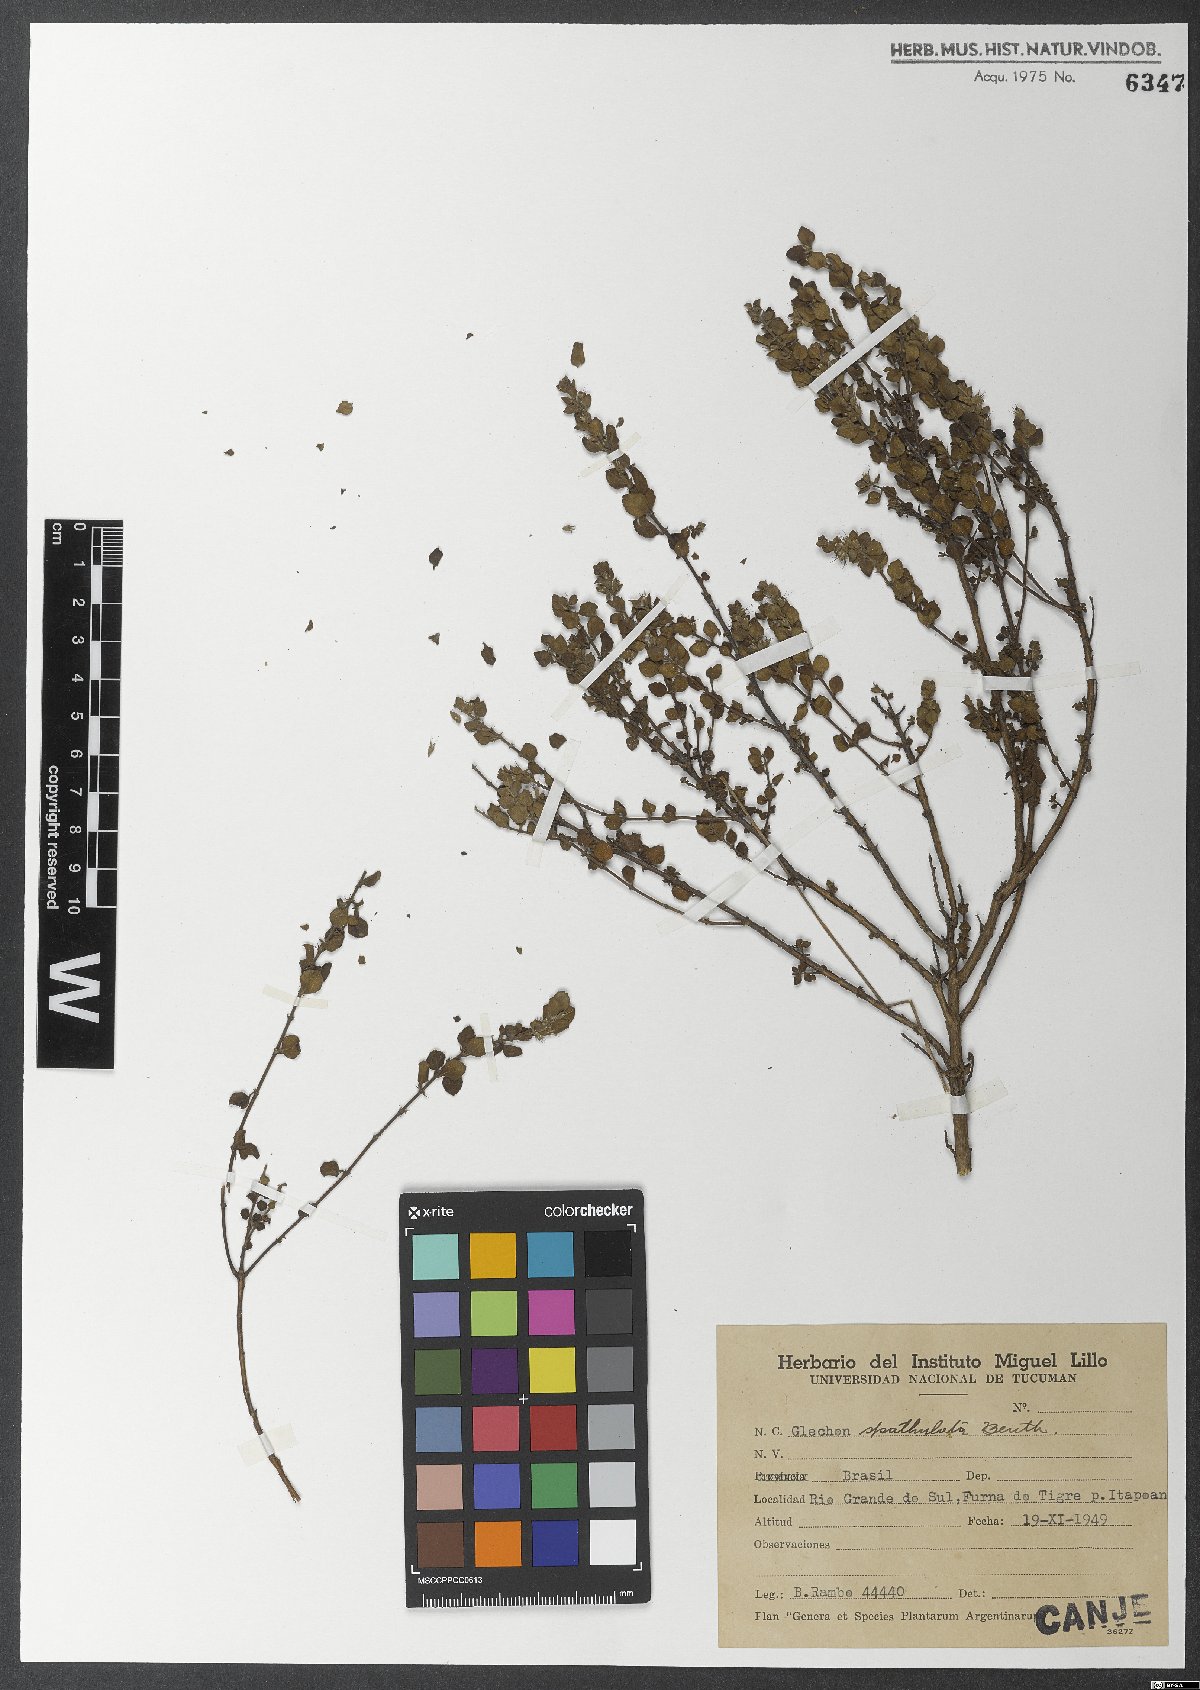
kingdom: Plantae
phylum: Tracheophyta
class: Magnoliopsida
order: Lamiales
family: Lamiaceae
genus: Glechon
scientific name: Glechon thymoides
